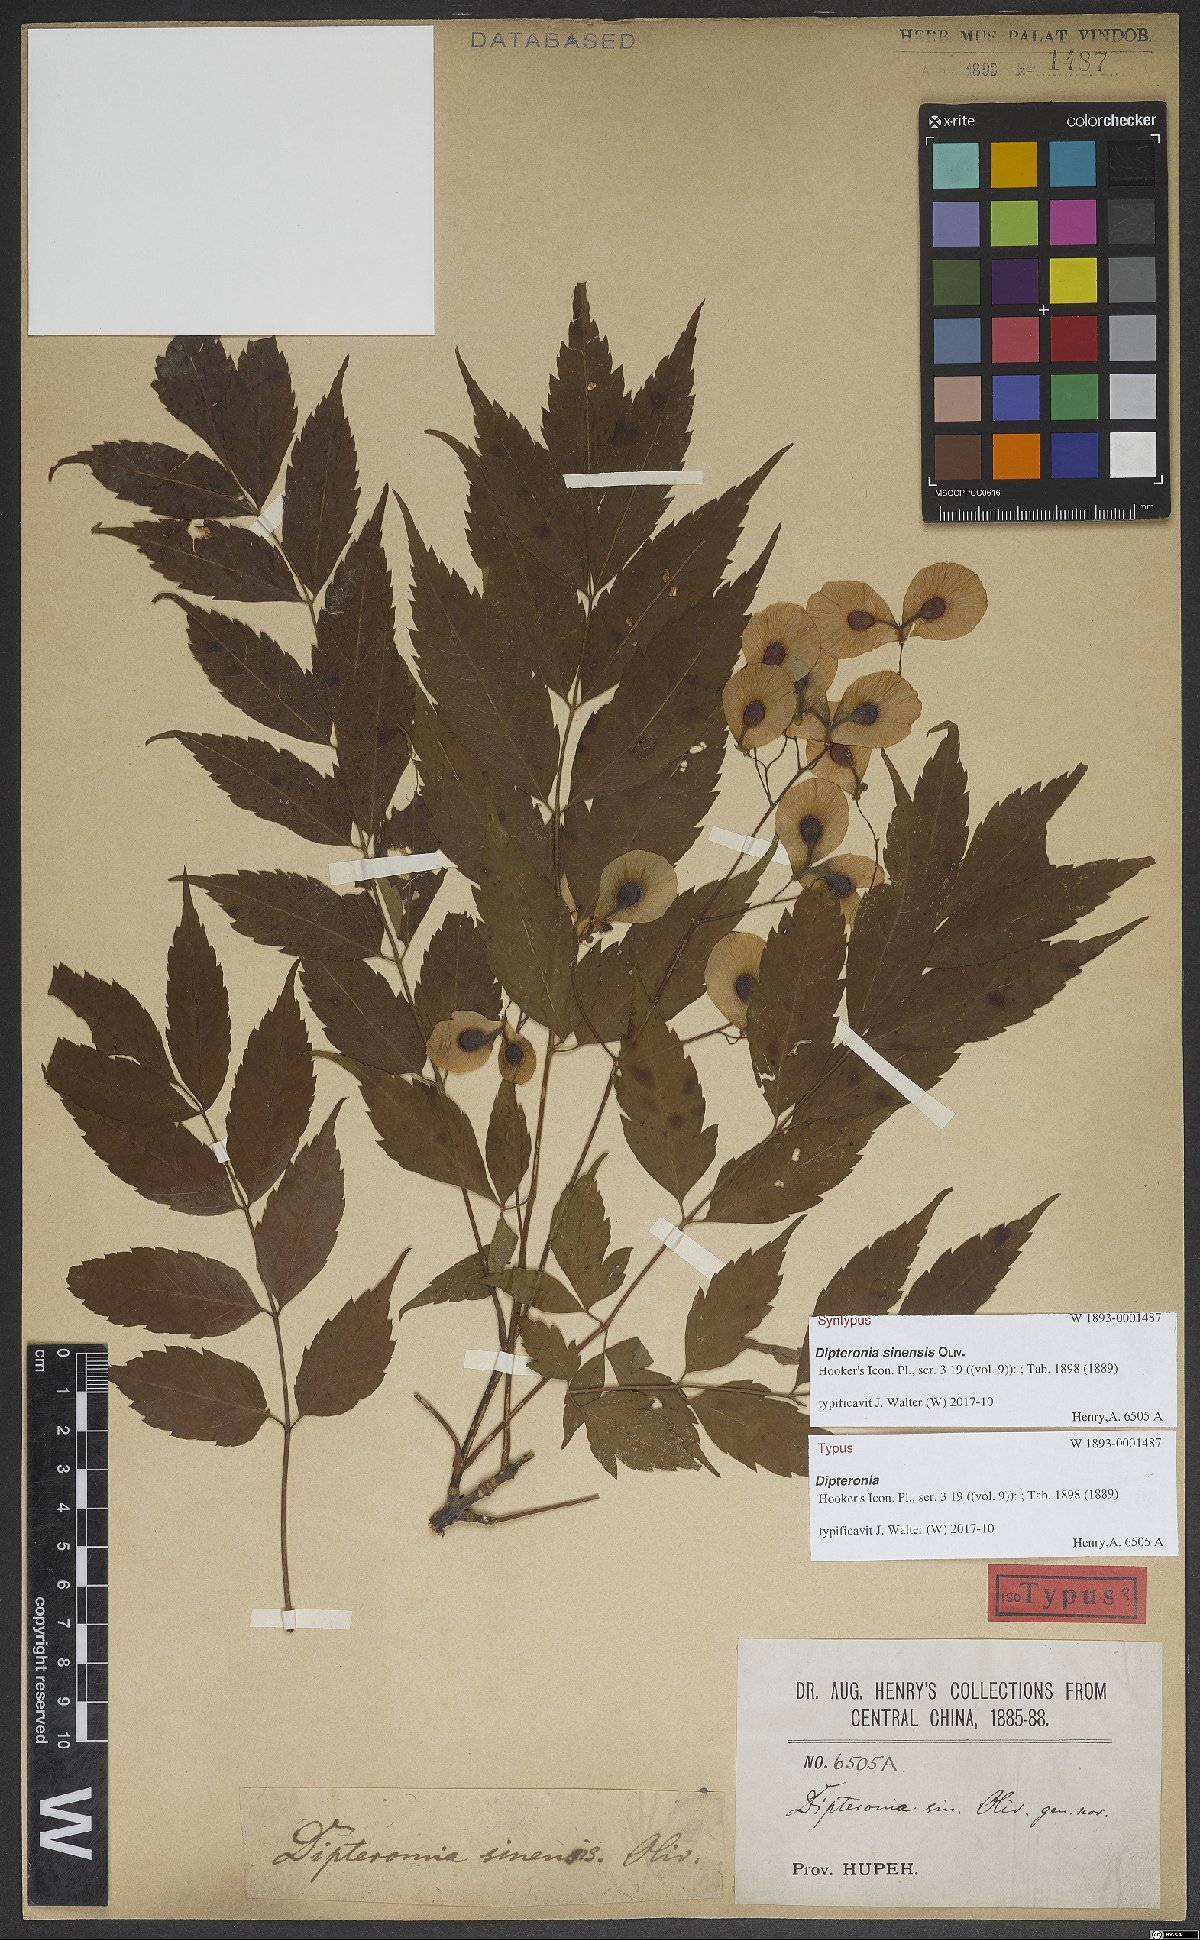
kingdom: Plantae
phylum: Tracheophyta
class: Magnoliopsida
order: Sapindales
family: Sapindaceae
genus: Dipteronia
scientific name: Dipteronia sinensis
